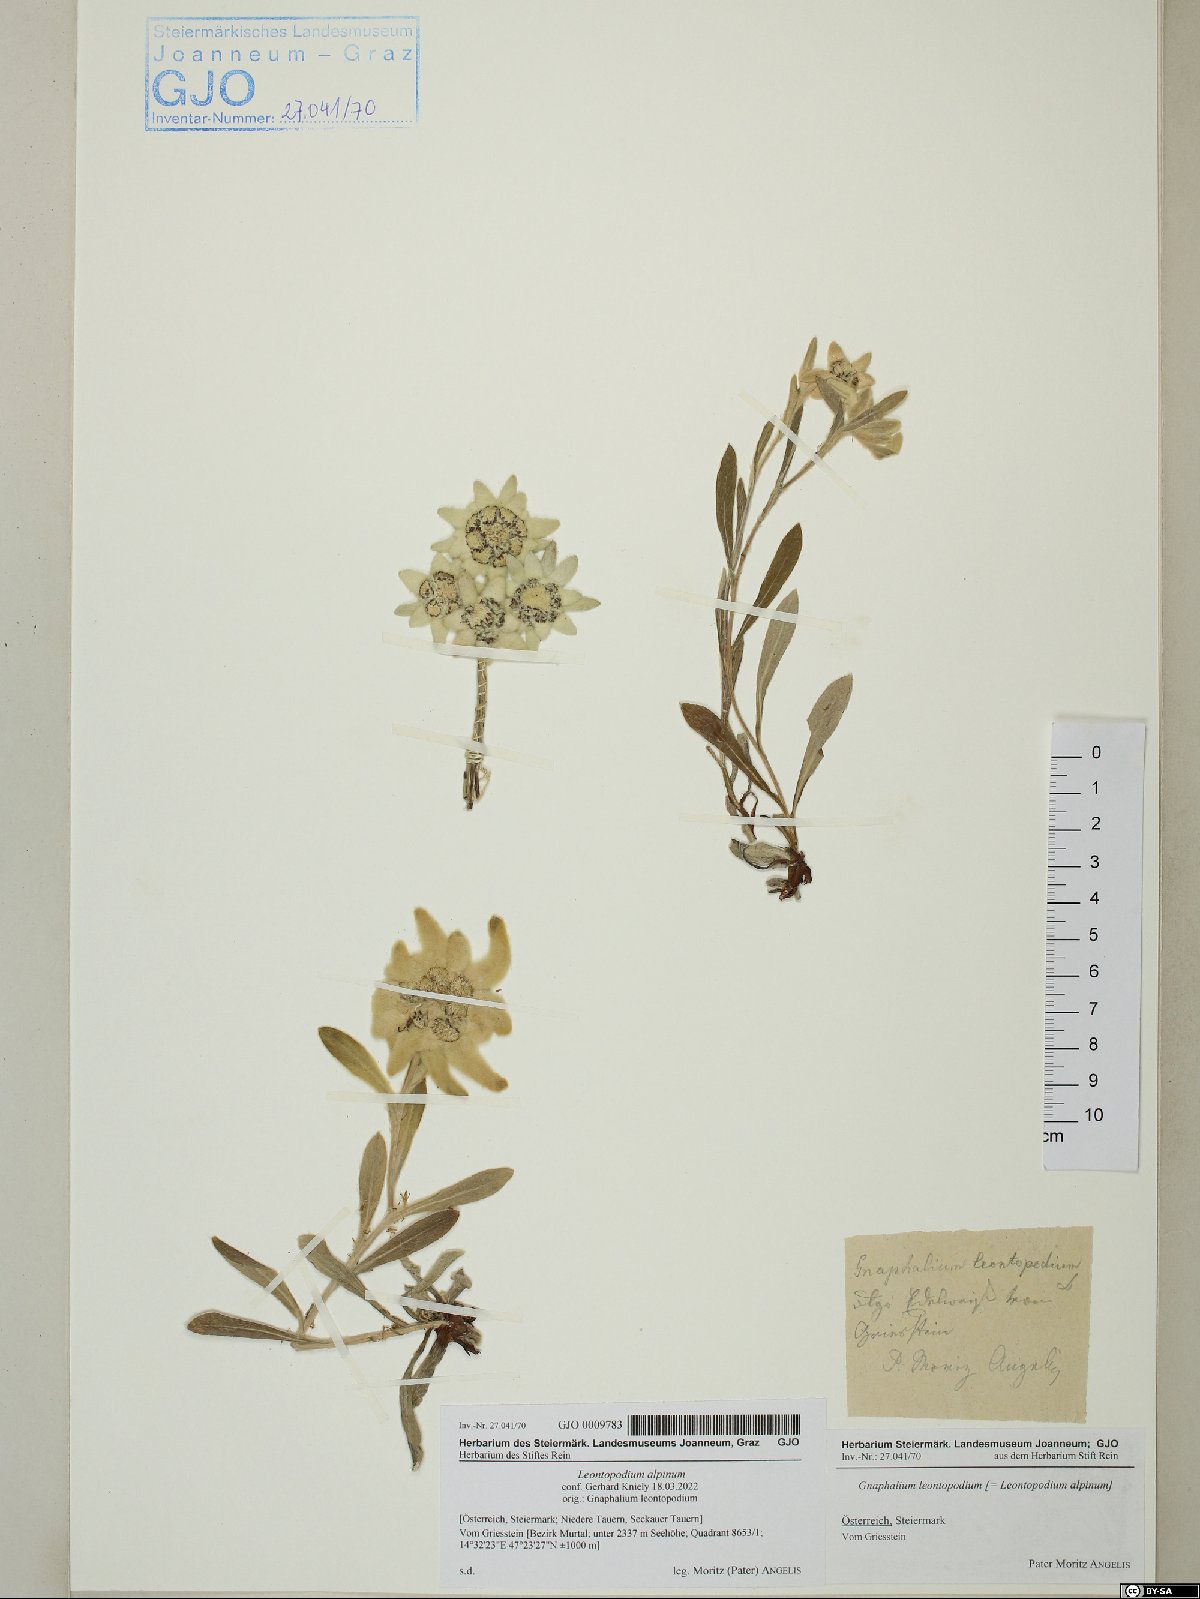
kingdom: Plantae
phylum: Tracheophyta
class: Magnoliopsida
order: Asterales
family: Asteraceae
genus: Leontopodium
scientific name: Leontopodium nivale
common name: Edelweiss
